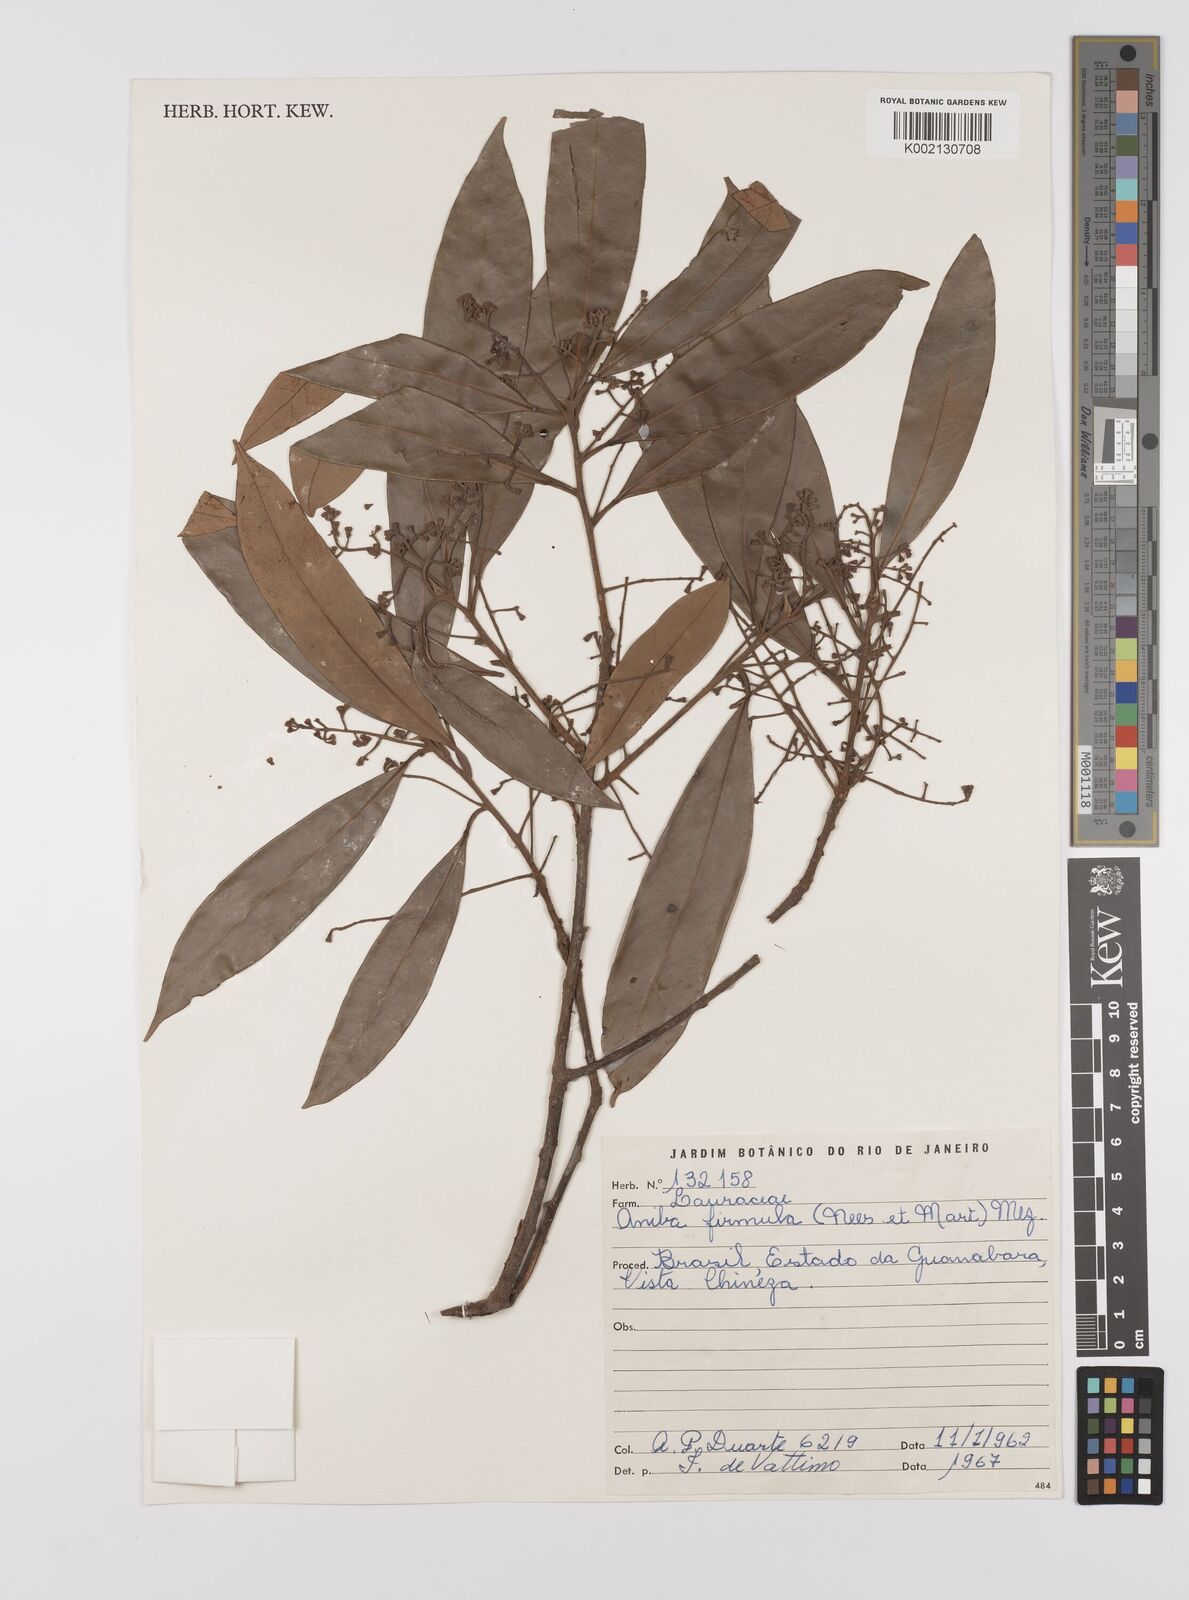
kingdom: Plantae
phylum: Tracheophyta
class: Magnoliopsida
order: Laurales
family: Lauraceae
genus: Aniba
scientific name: Aniba firmula
